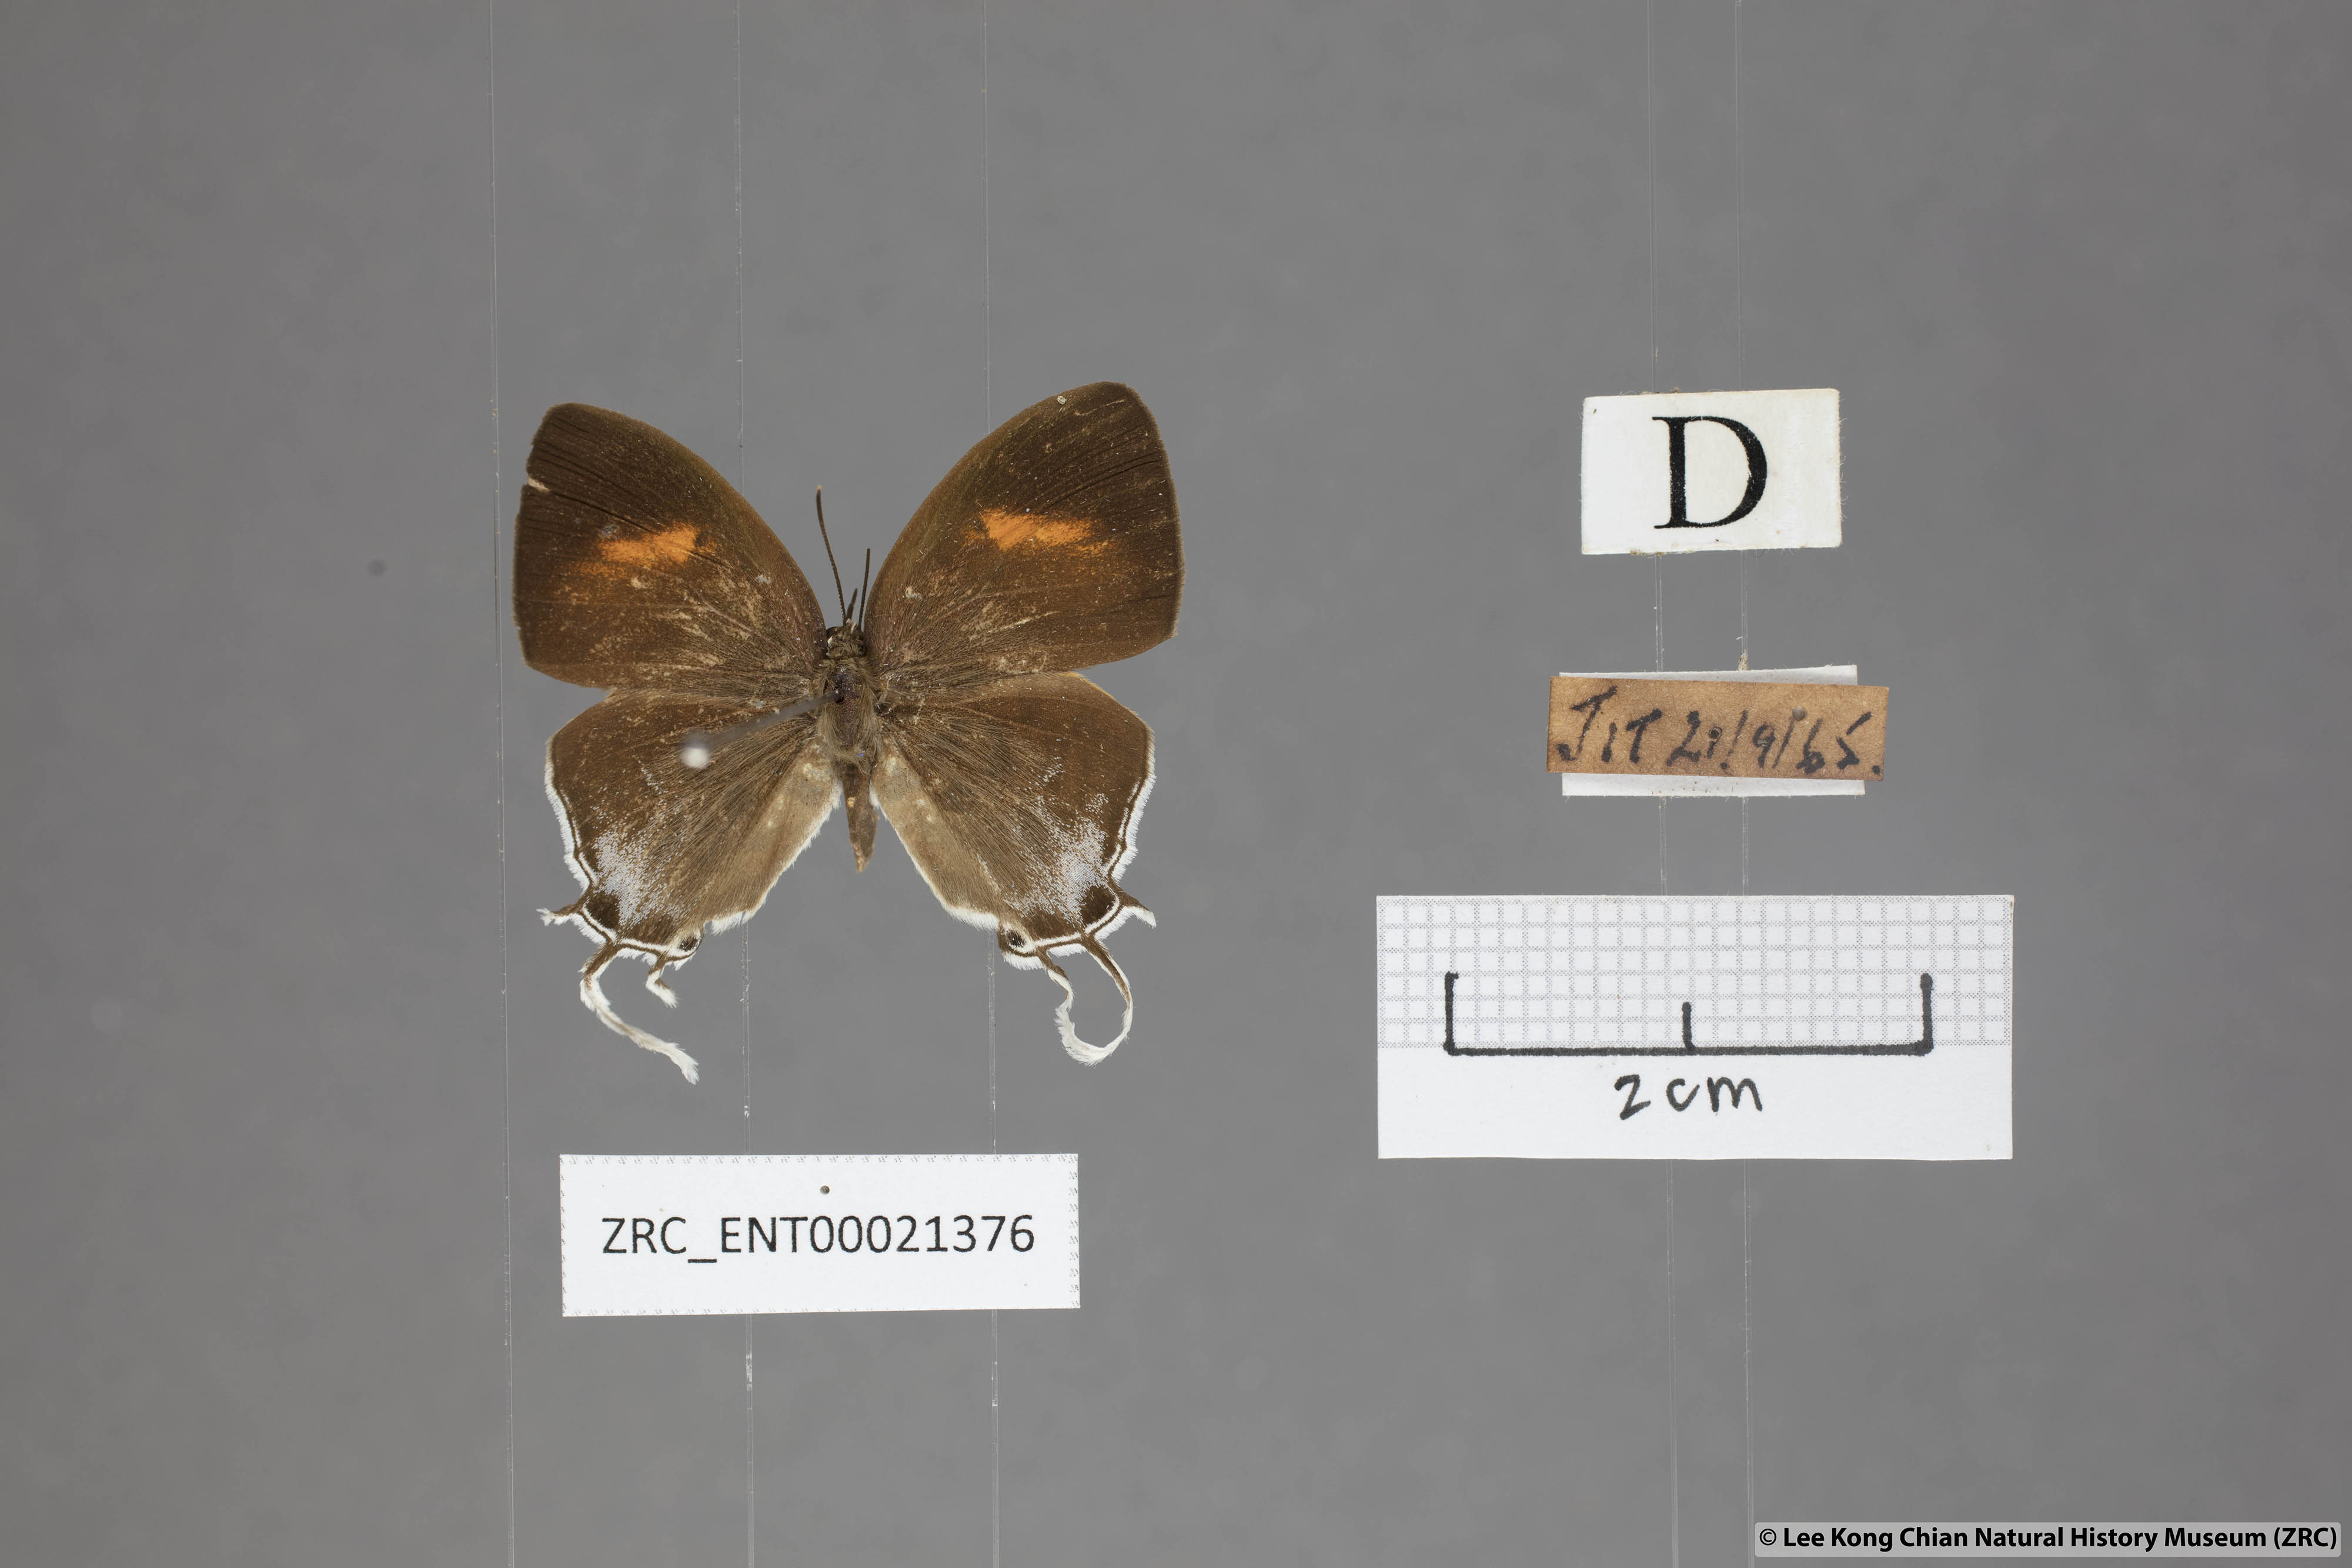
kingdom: Animalia
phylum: Arthropoda
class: Insecta
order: Lepidoptera
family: Lycaenidae
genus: Drupadia
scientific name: Drupadia ravindra
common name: Common posy
